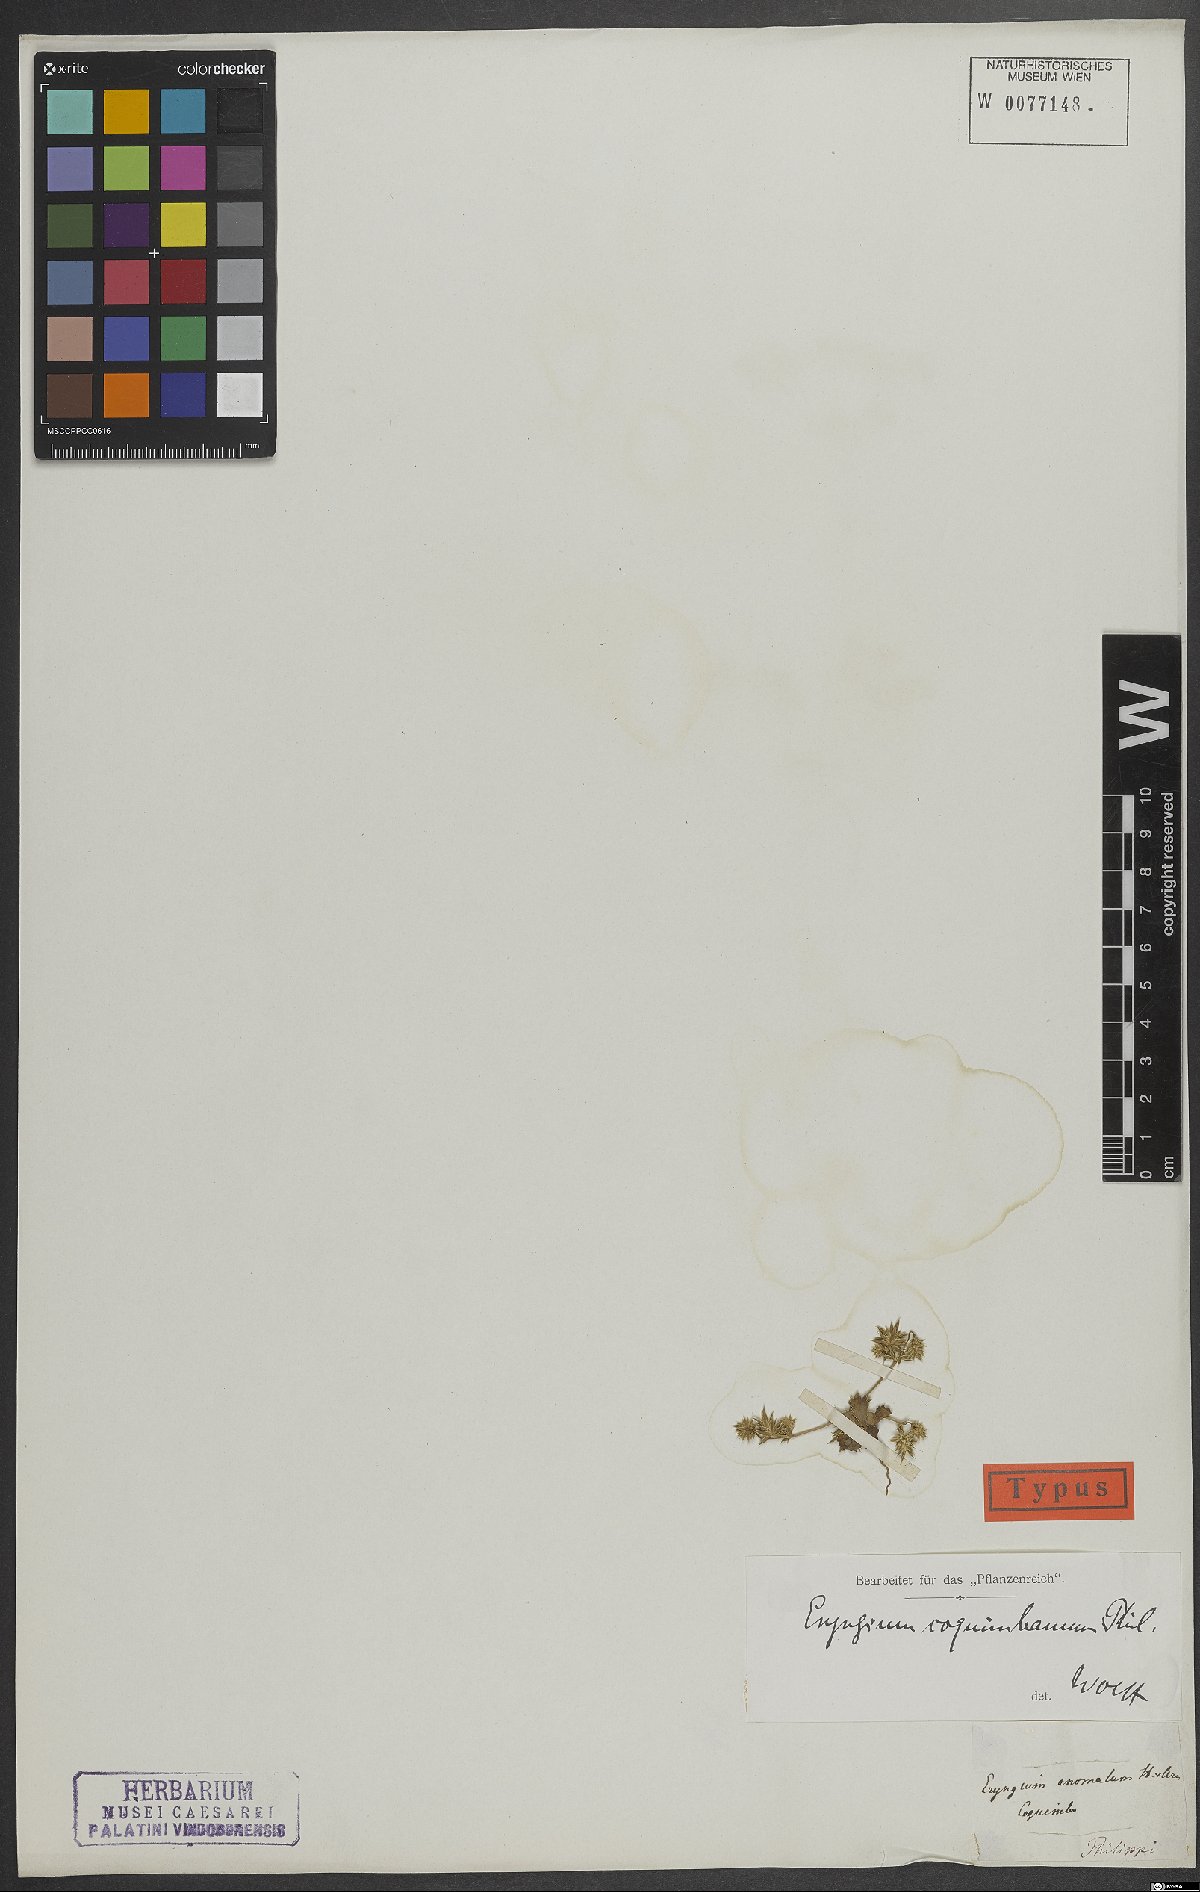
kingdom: Plantae
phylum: Tracheophyta
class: Magnoliopsida
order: Apiales
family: Apiaceae
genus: Eryngium
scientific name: Eryngium coquimbanum
